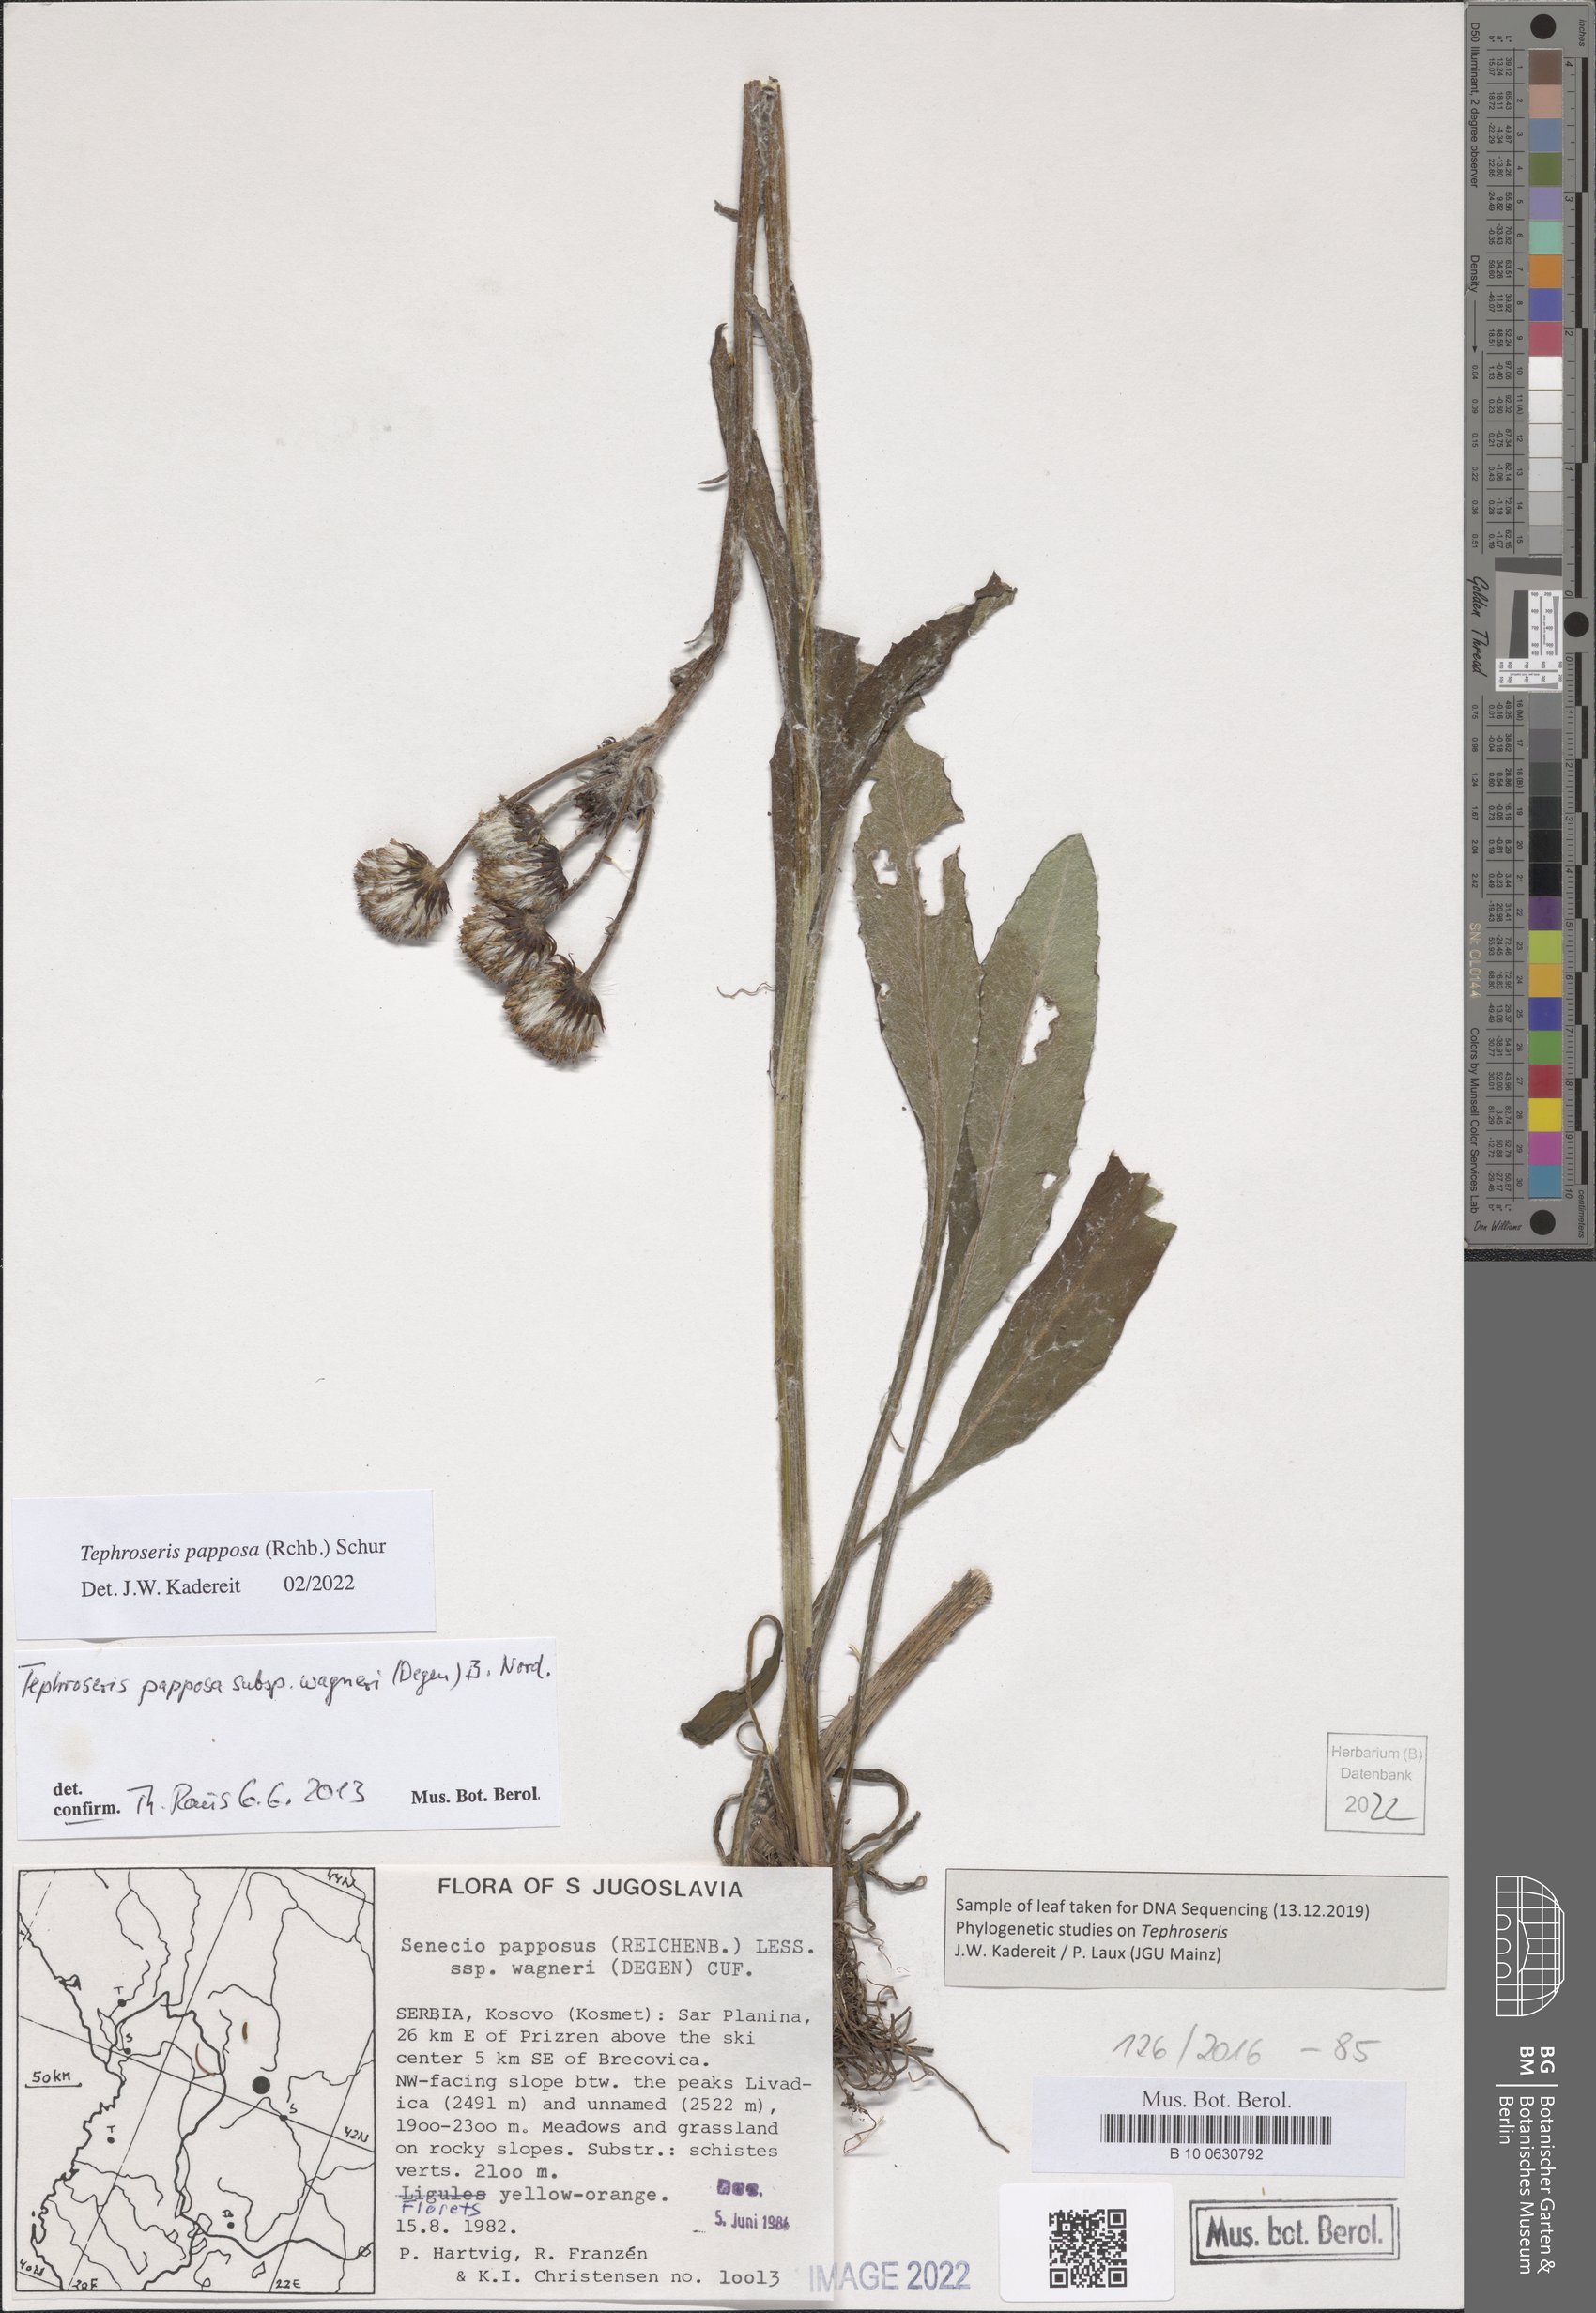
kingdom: Plantae
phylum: Tracheophyta
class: Magnoliopsida
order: Asterales
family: Asteraceae
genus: Tephroseris
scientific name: Tephroseris papposa
